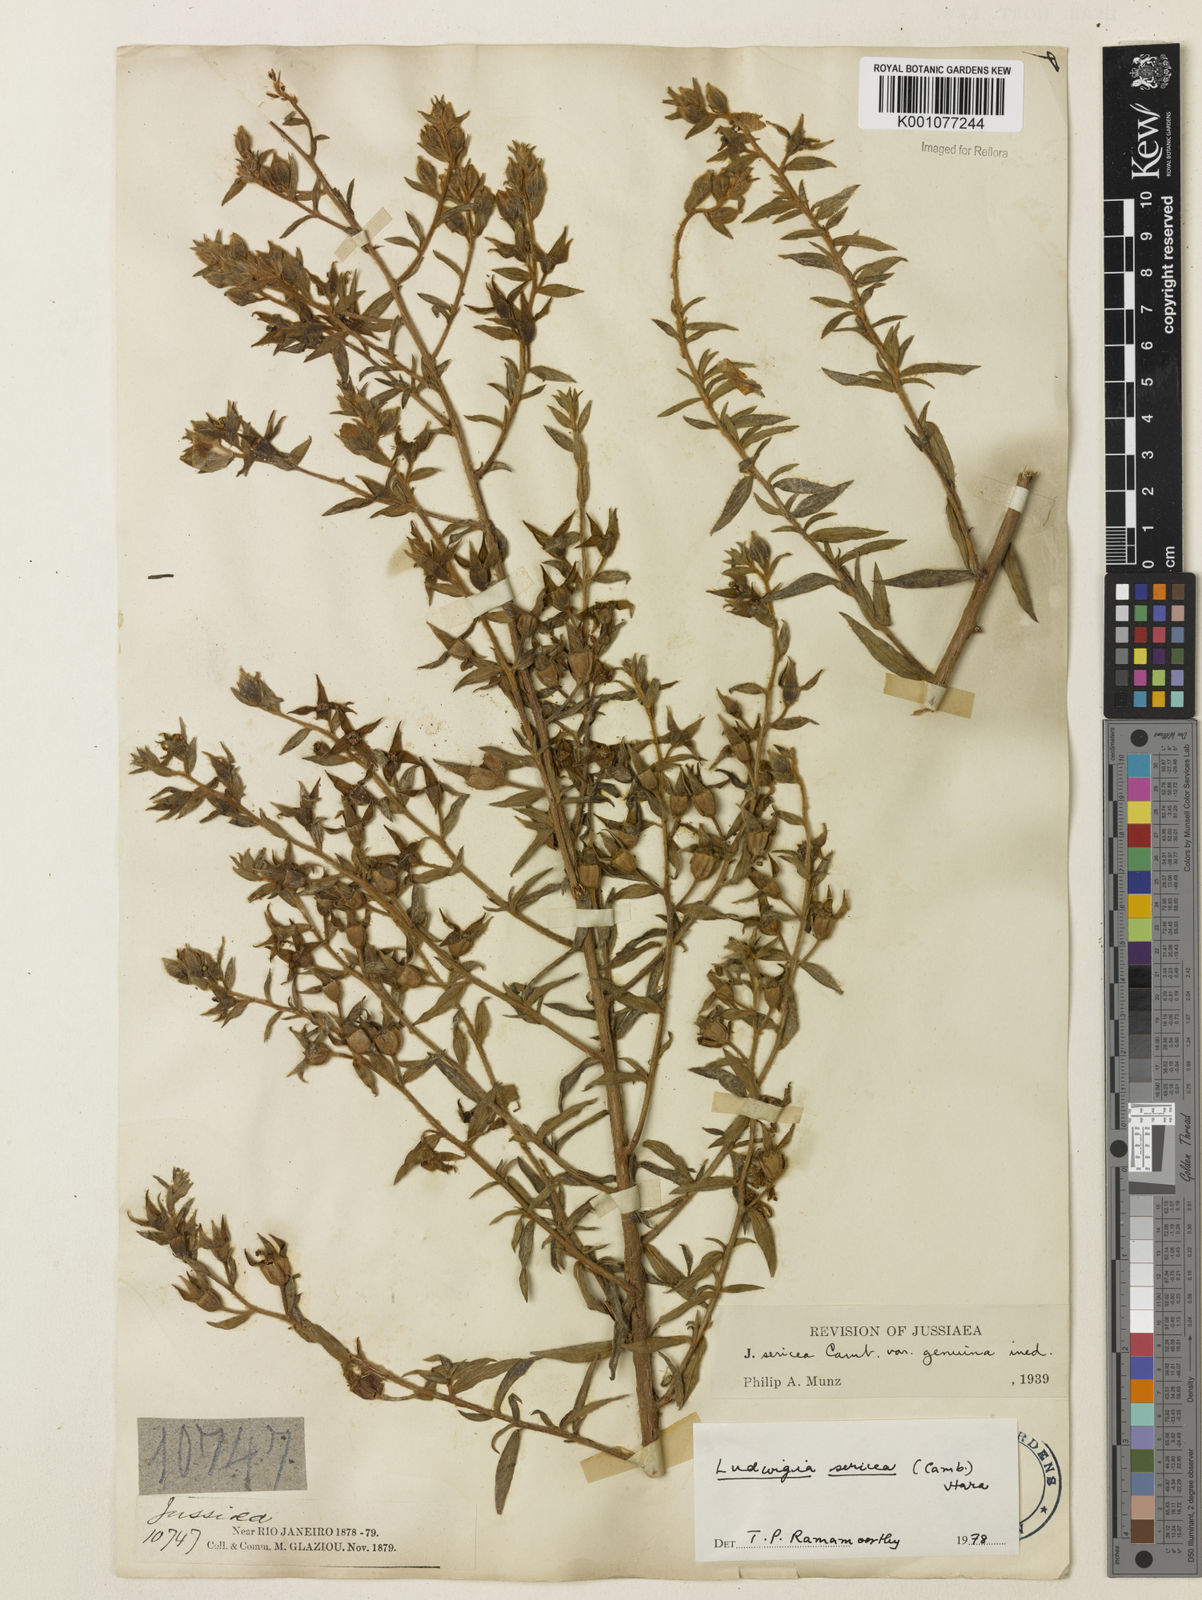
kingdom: Plantae
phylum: Tracheophyta
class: Magnoliopsida
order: Myrtales
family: Onagraceae
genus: Ludwigia
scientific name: Ludwigia sericea
